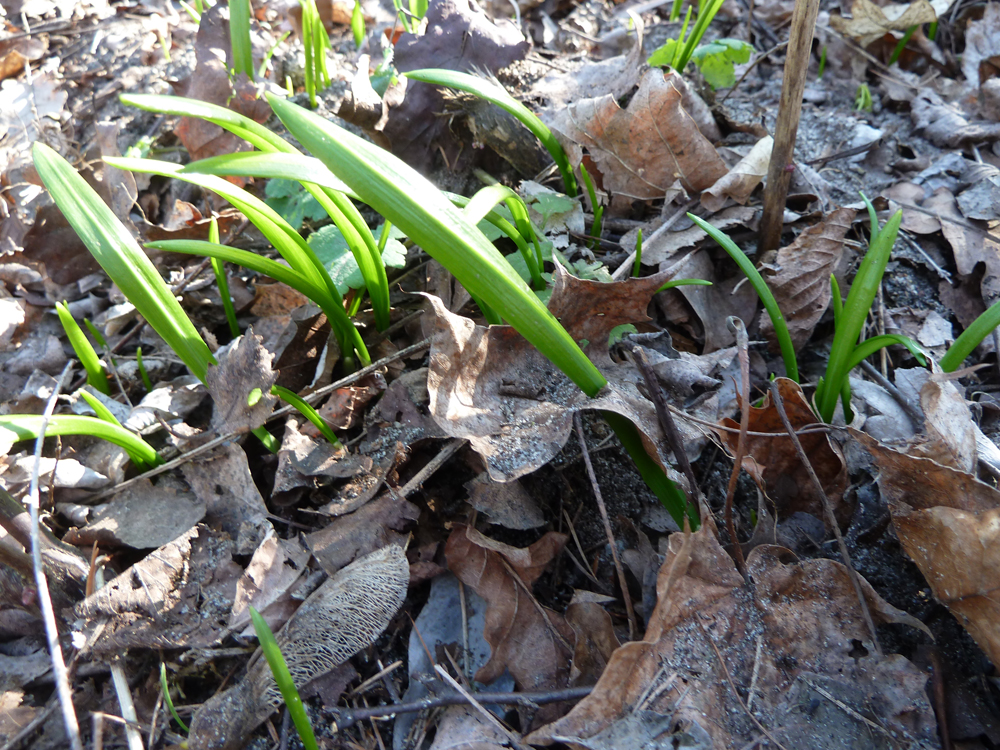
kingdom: Plantae
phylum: Tracheophyta
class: Liliopsida
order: Asparagales
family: Amaryllidaceae
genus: Allium
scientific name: Allium paradoxum
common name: Few-flowered garlic
